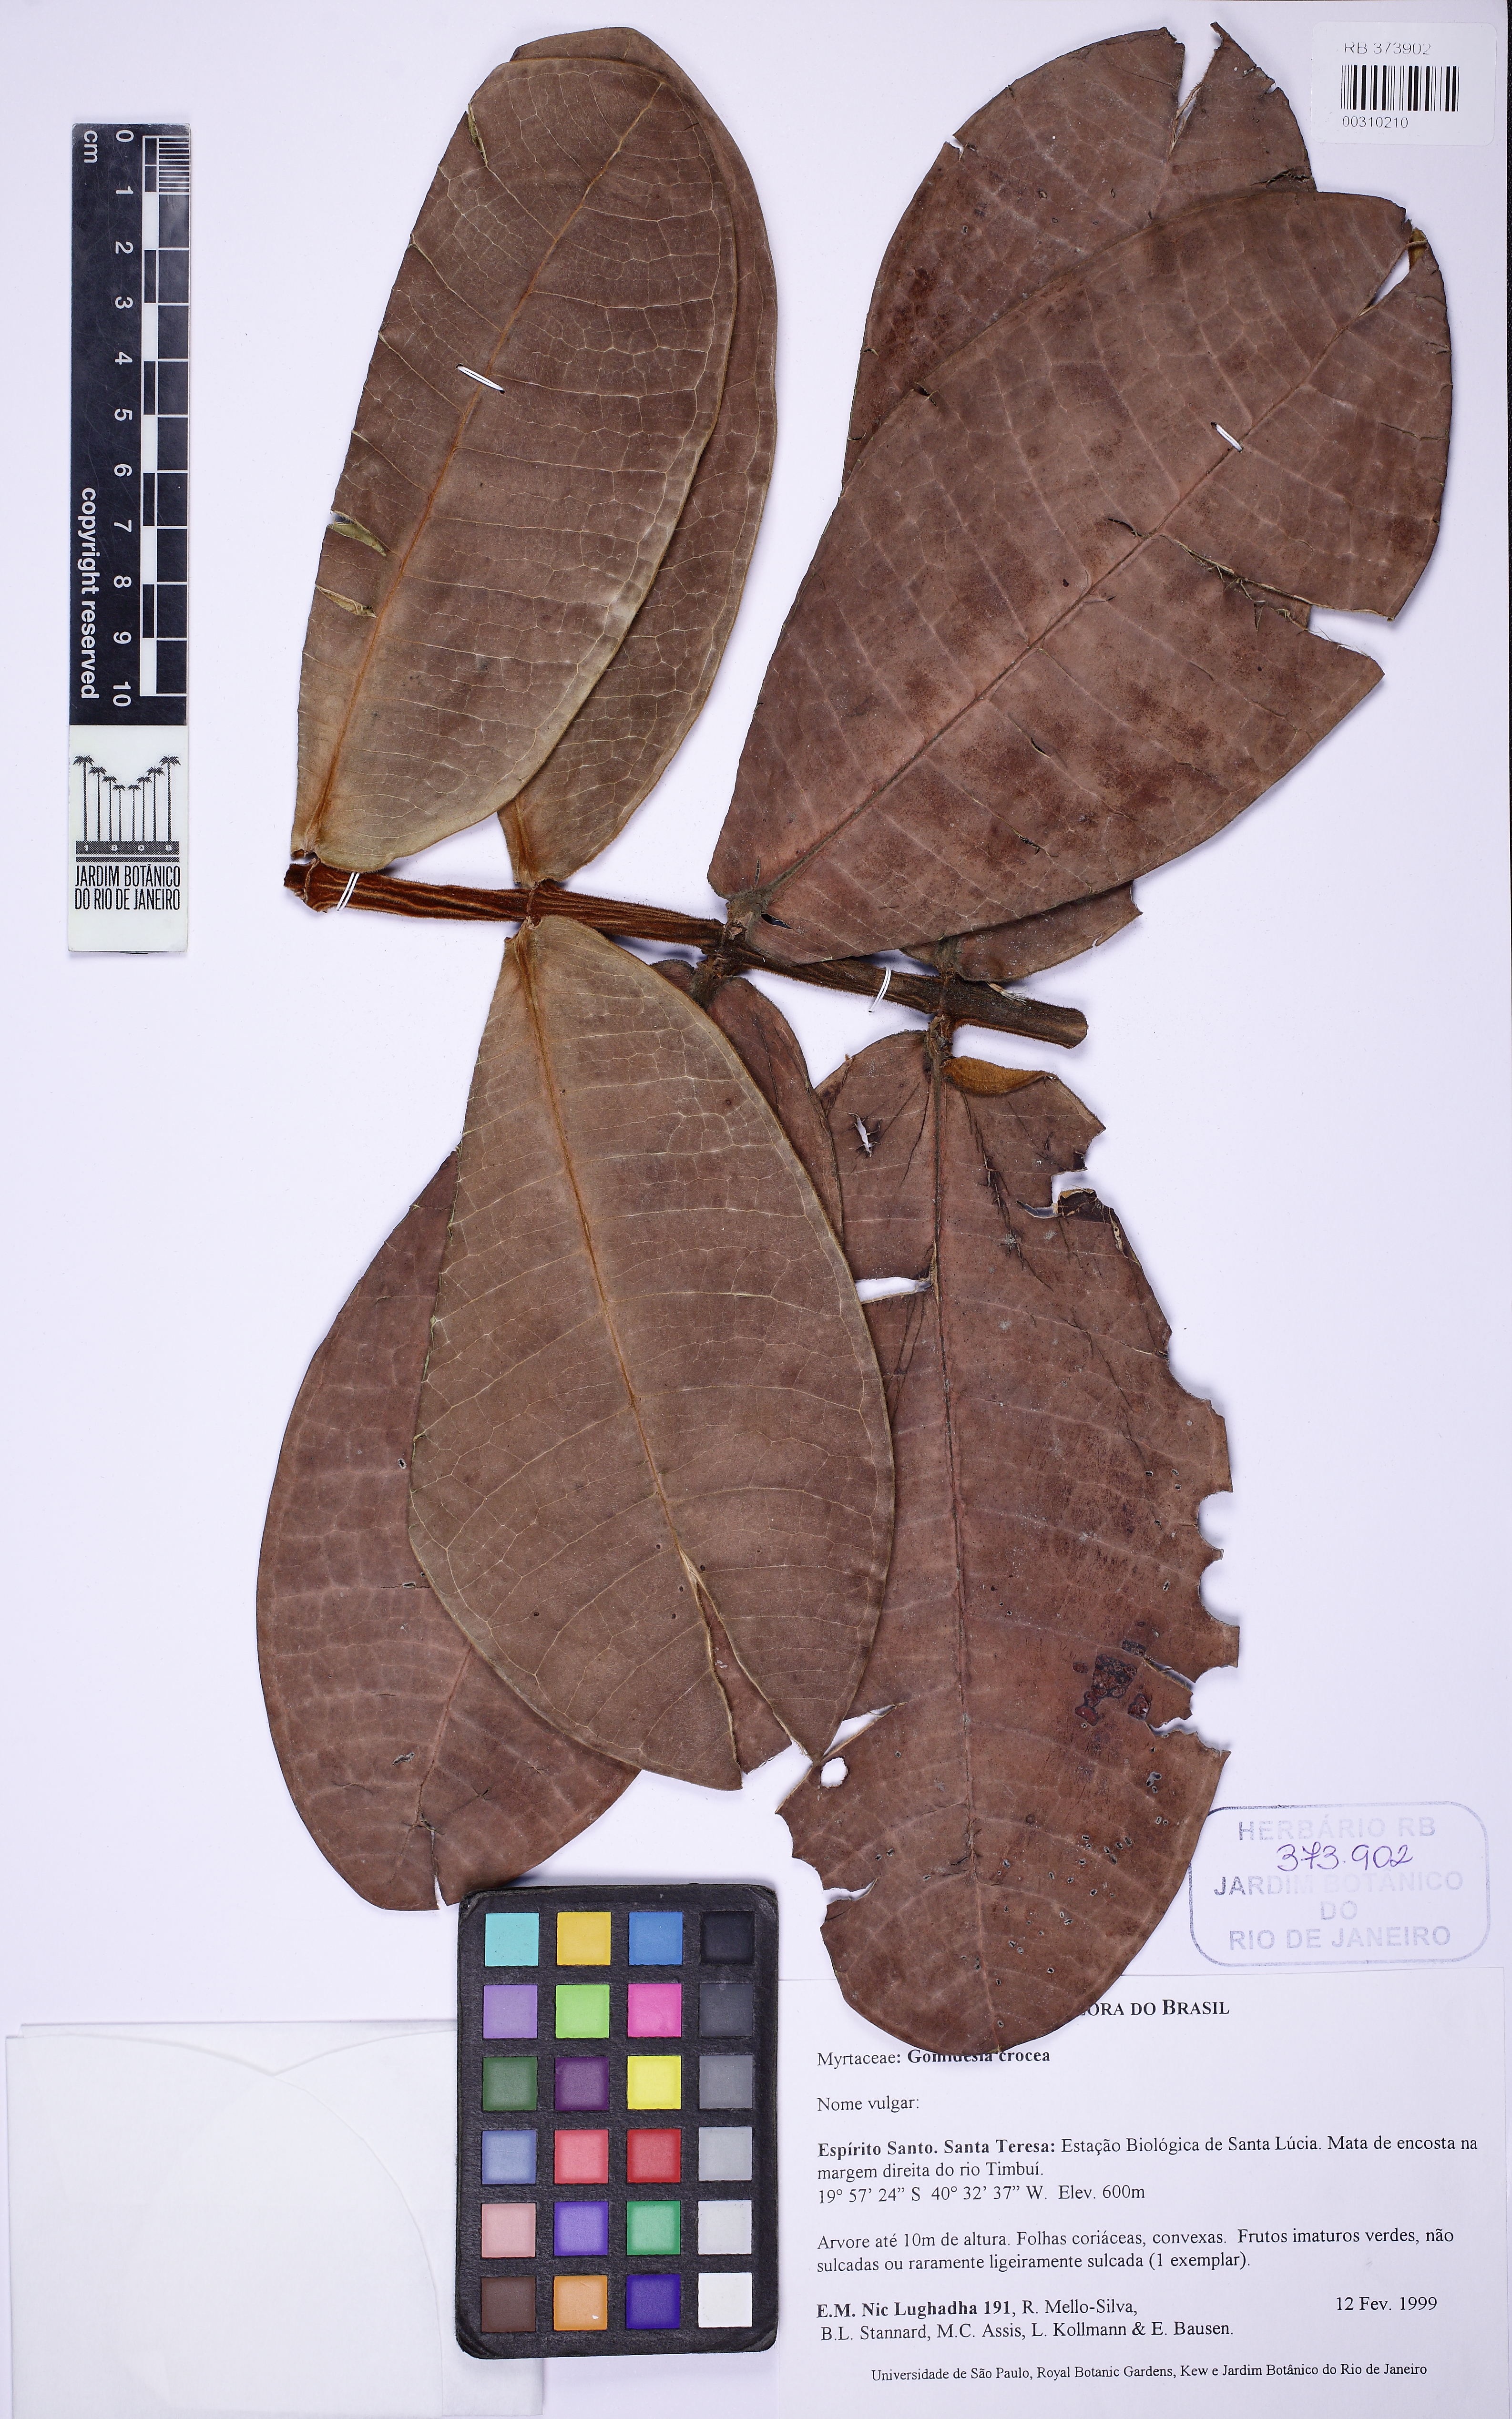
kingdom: Plantae
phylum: Tracheophyta
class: Magnoliopsida
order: Myrtales
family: Myrtaceae
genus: Myrcia
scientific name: Myrcia amplexicaulis
